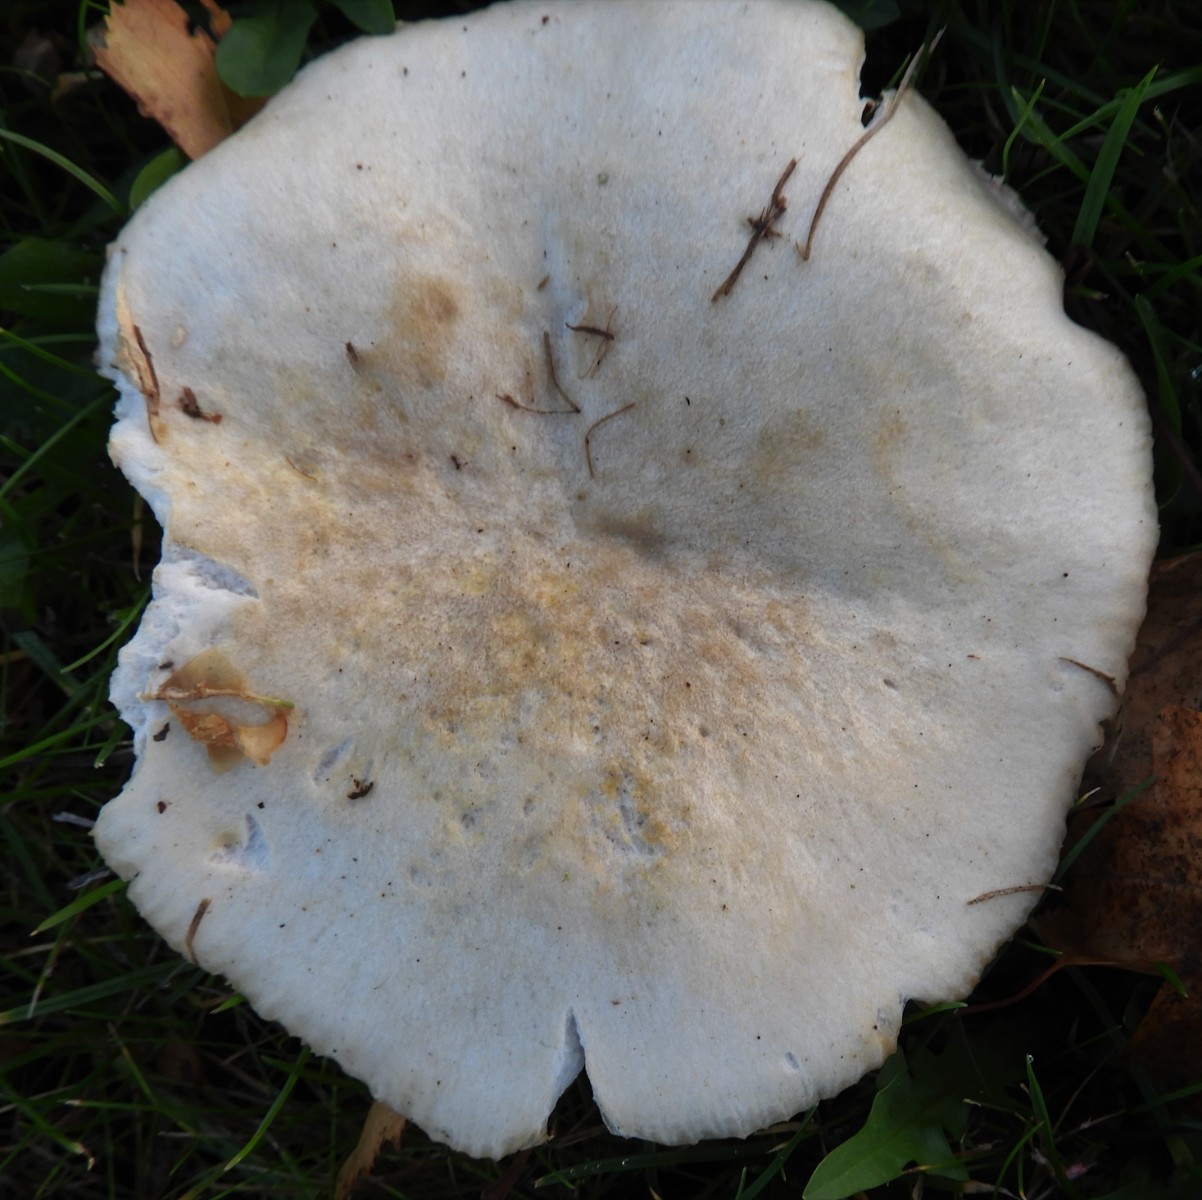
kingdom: Fungi
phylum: Basidiomycota
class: Agaricomycetes
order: Russulales
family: Russulaceae
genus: Russula
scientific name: Russula
